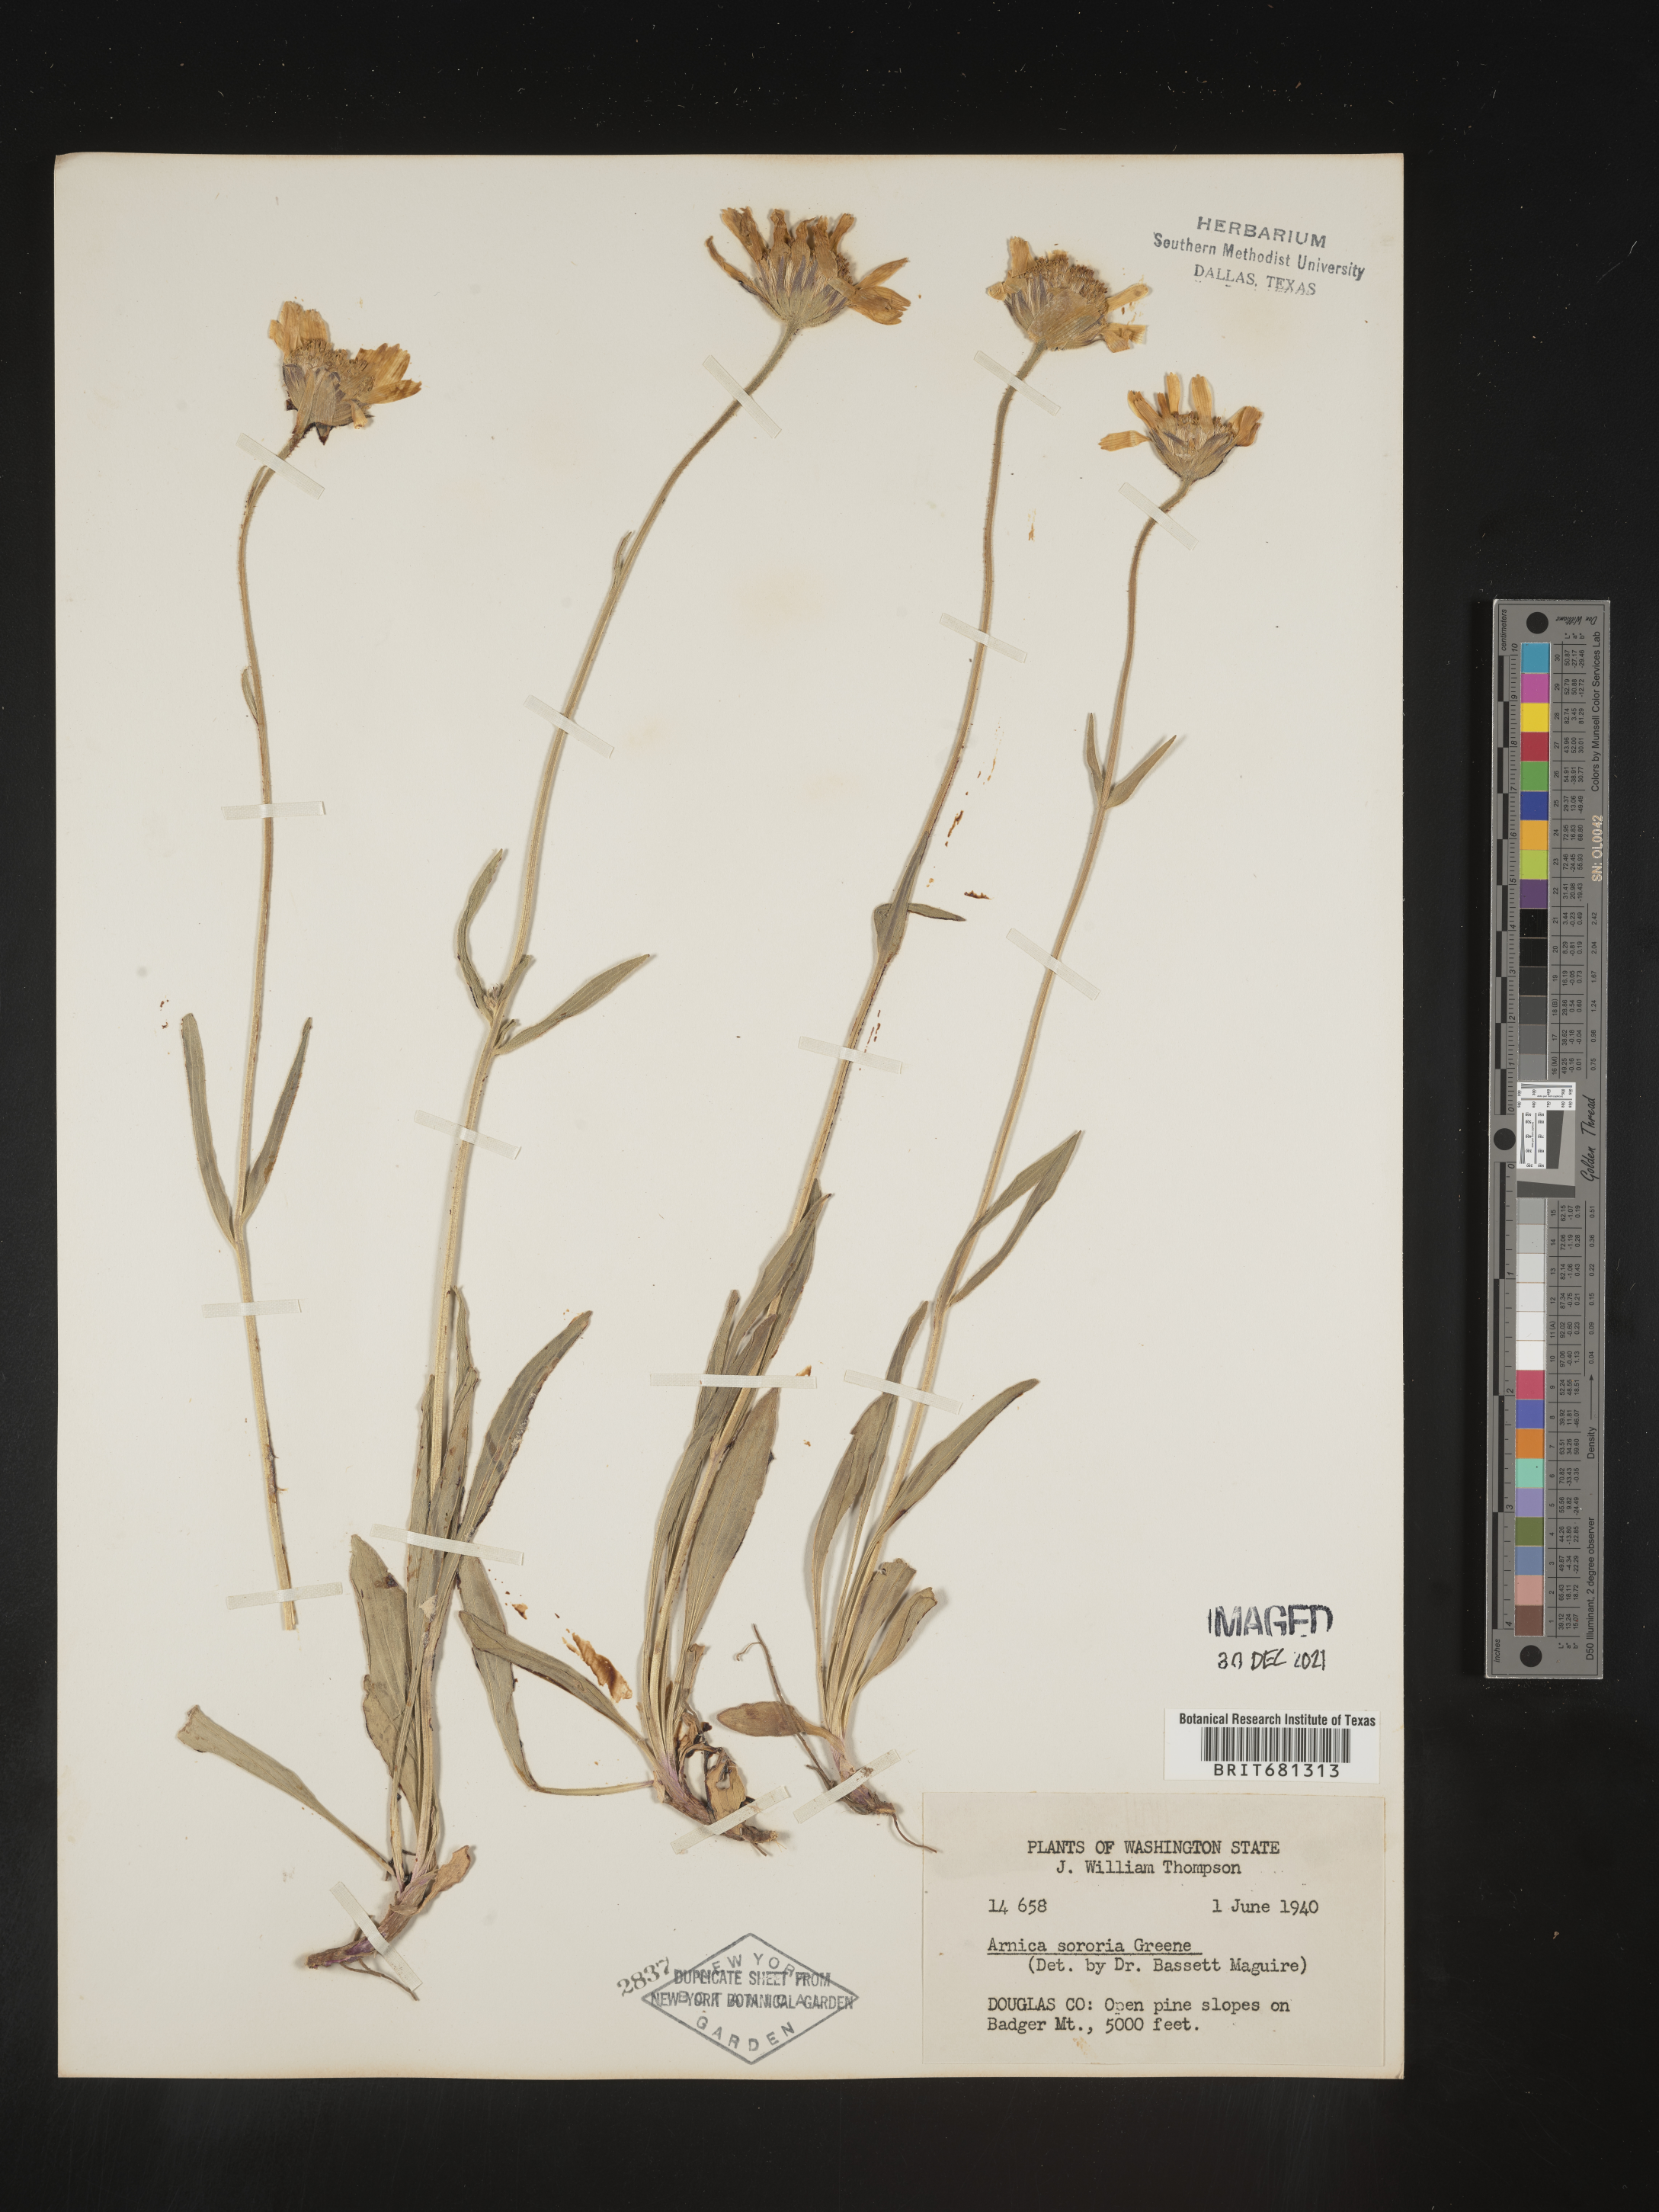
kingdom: Plantae
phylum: Tracheophyta
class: Magnoliopsida
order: Asterales
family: Asteraceae
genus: Arnica
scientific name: Arnica sororia
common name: Twin arnica
